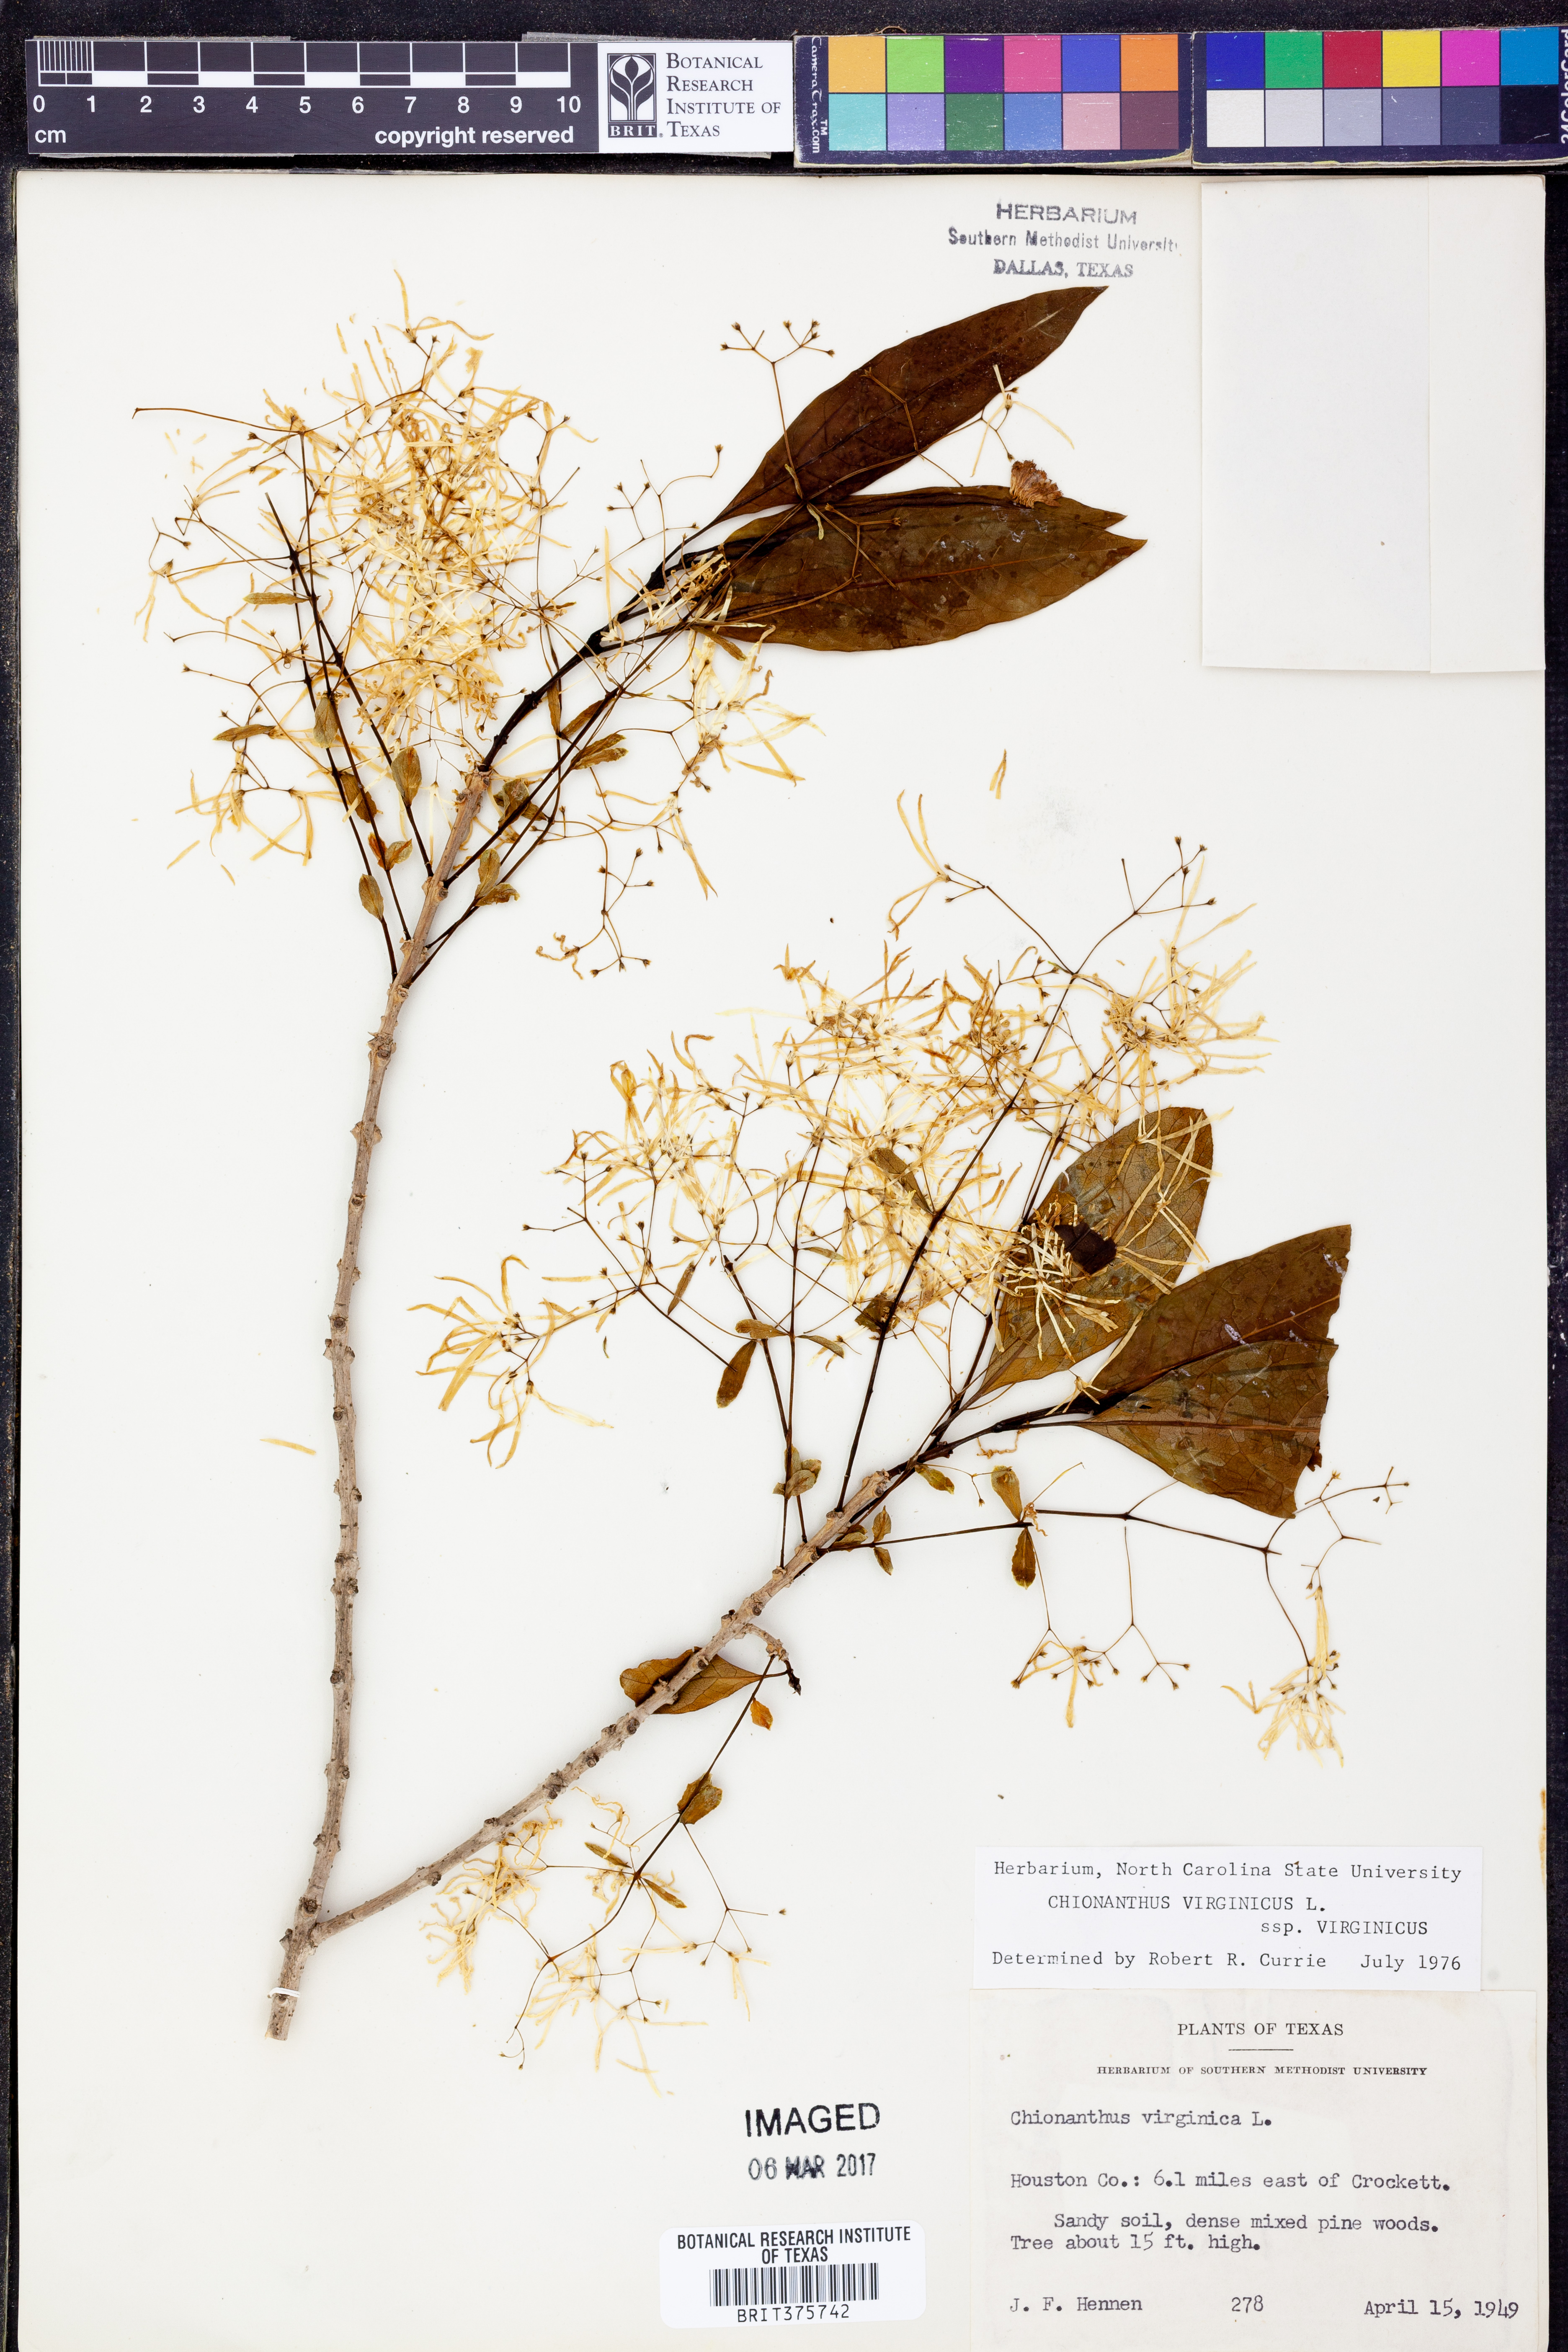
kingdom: Plantae
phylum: Tracheophyta
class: Magnoliopsida
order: Lamiales
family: Oleaceae
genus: Chionanthus
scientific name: Chionanthus virginicus
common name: American fringetree
